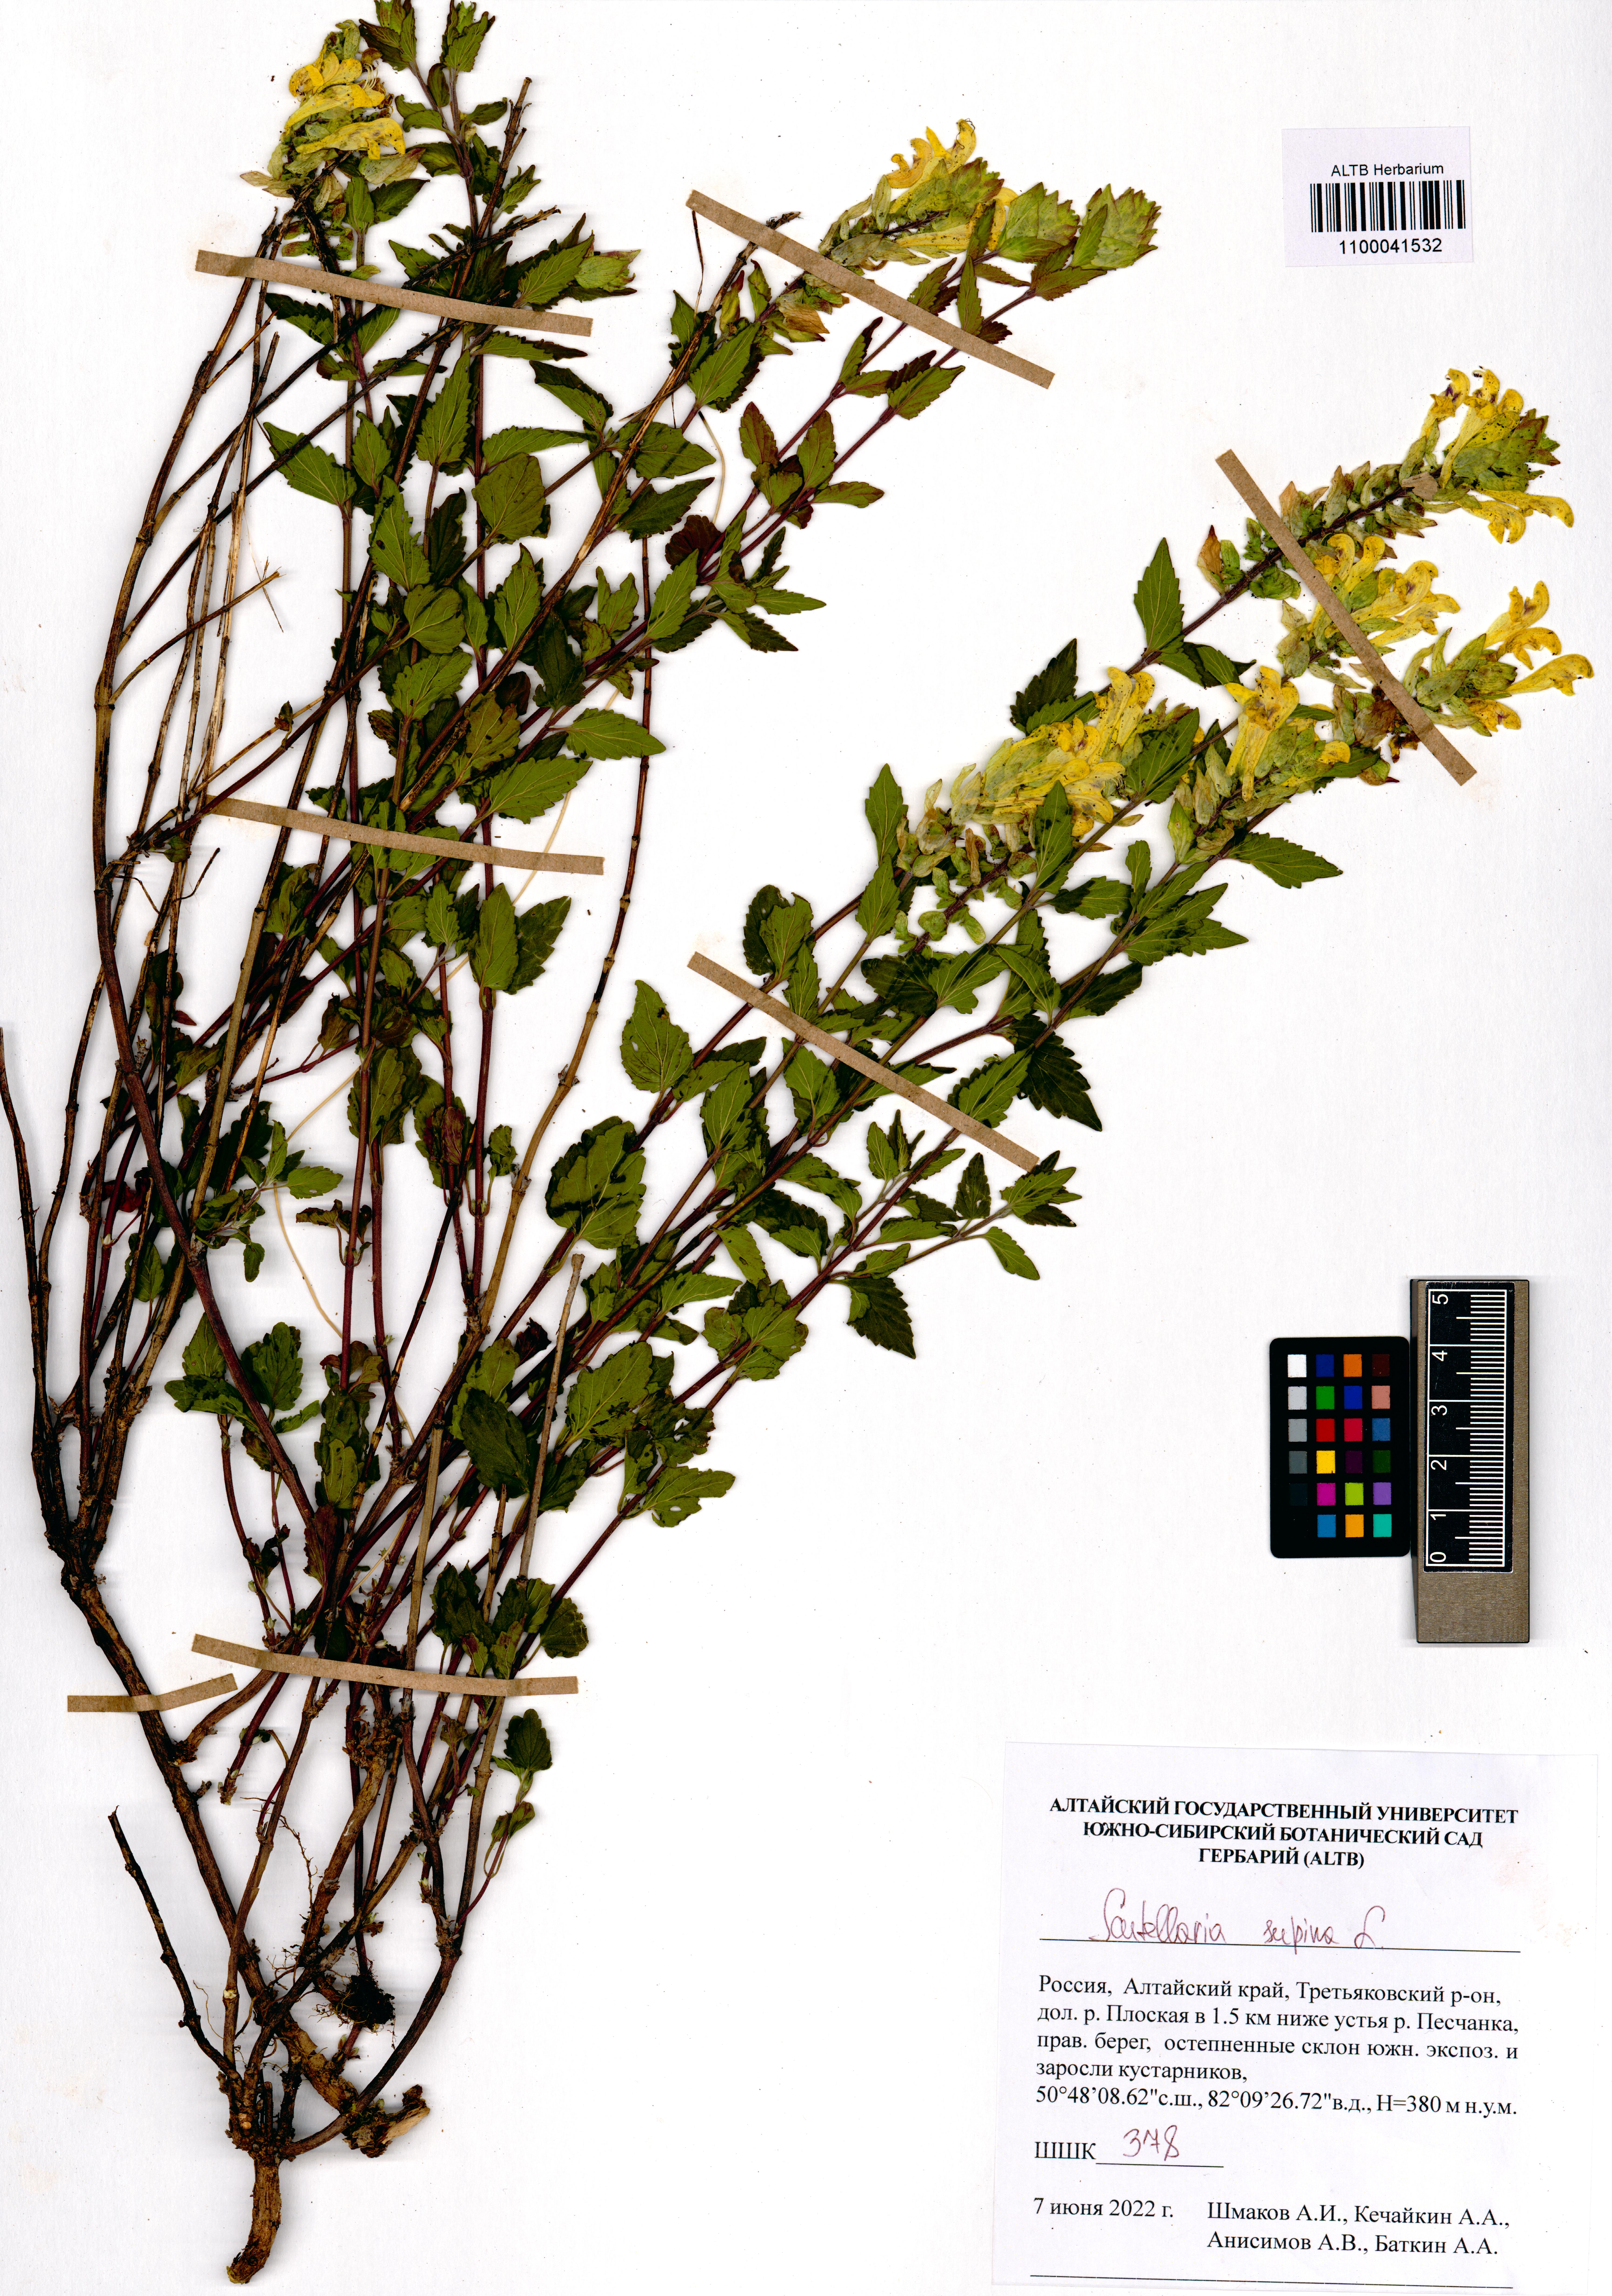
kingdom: Plantae
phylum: Tracheophyta
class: Magnoliopsida
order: Lamiales
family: Lamiaceae
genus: Scutellaria
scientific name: Scutellaria supina
